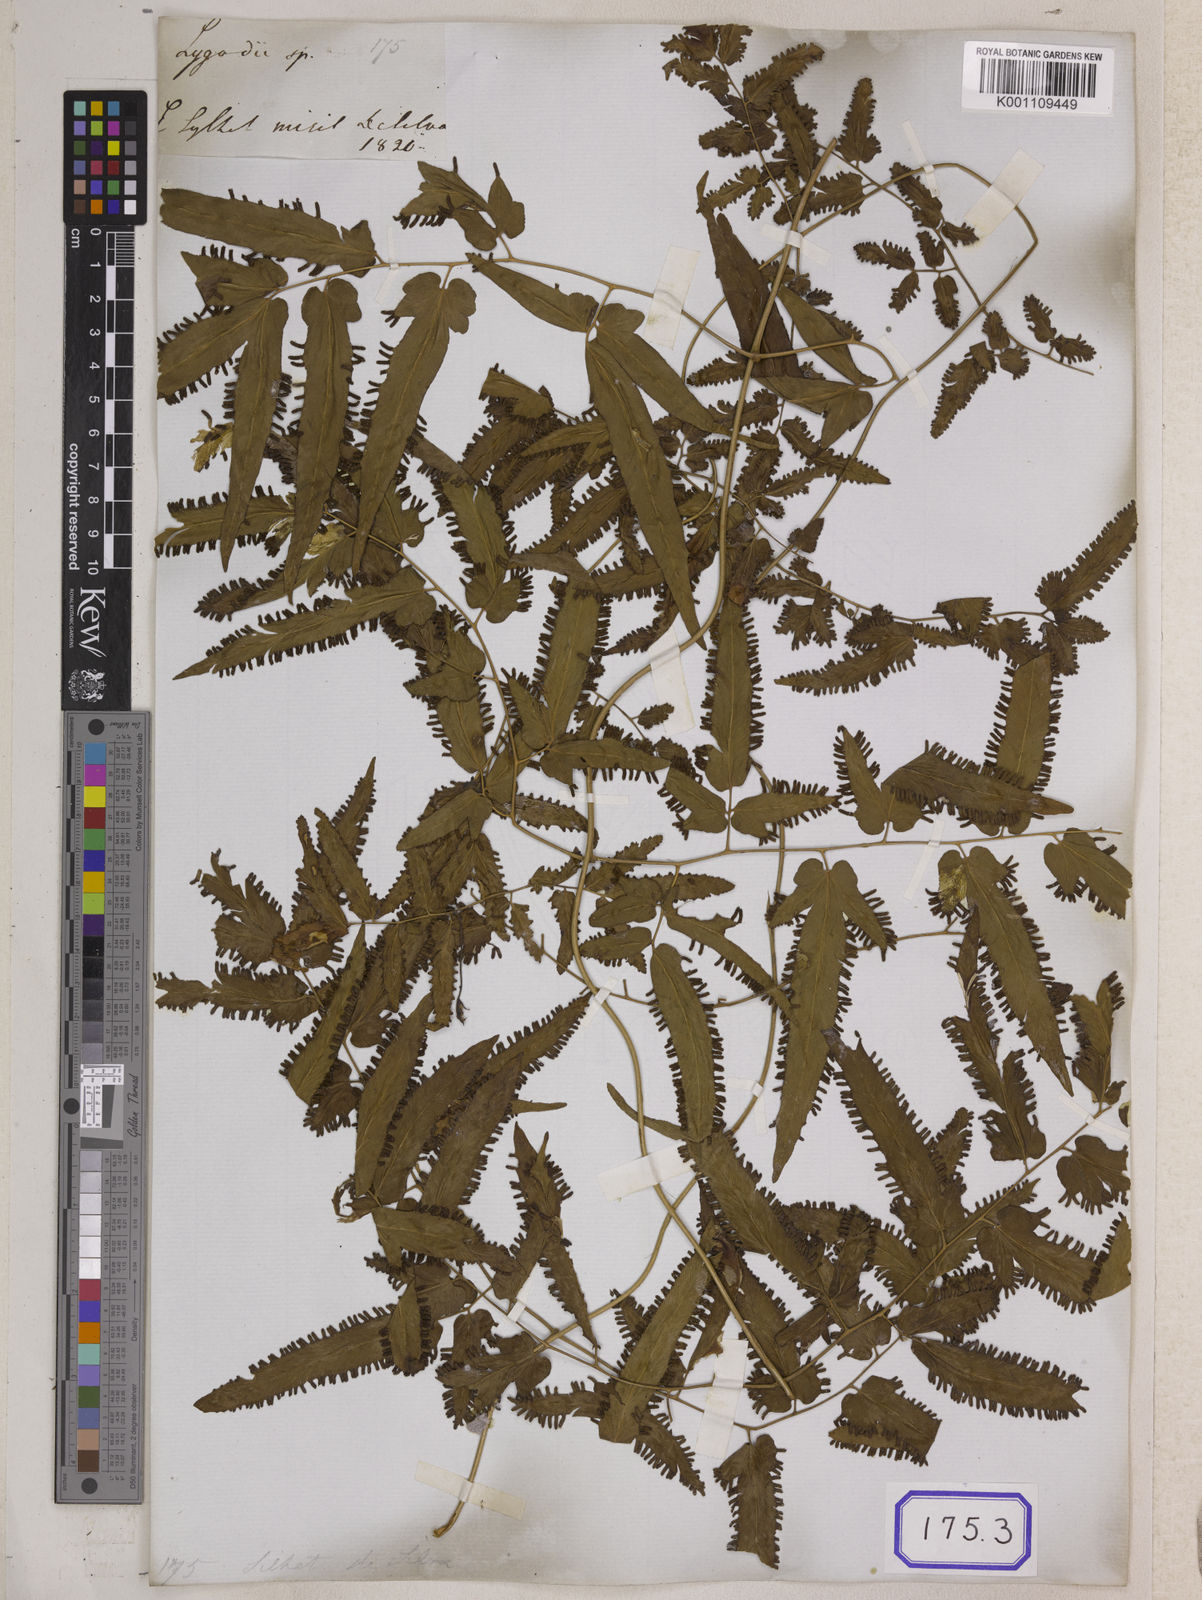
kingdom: Plantae
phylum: Tracheophyta
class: Polypodiopsida
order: Schizaeales
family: Lygodiaceae
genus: Lygodium
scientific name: Lygodium flexuosum
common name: Maidenhair creeper
